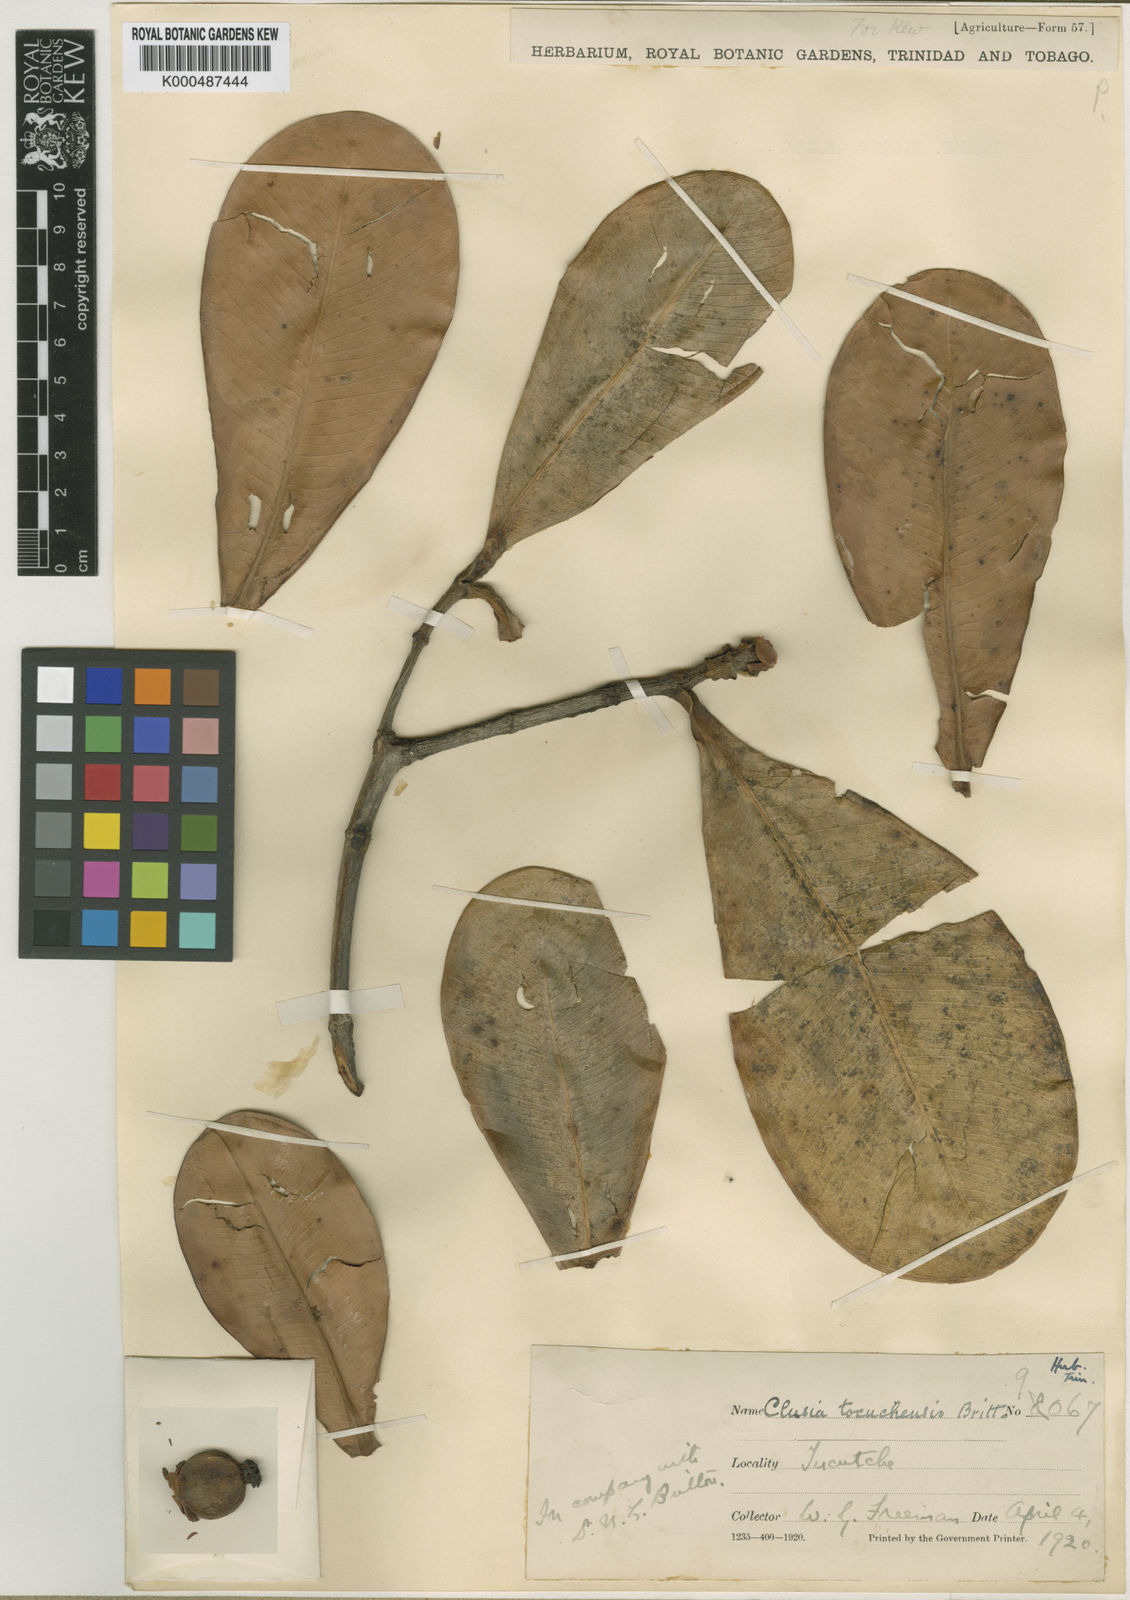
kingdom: Plantae
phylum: Tracheophyta
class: Magnoliopsida
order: Malpighiales
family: Clusiaceae
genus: Clusia
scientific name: Clusia tocuchensis
